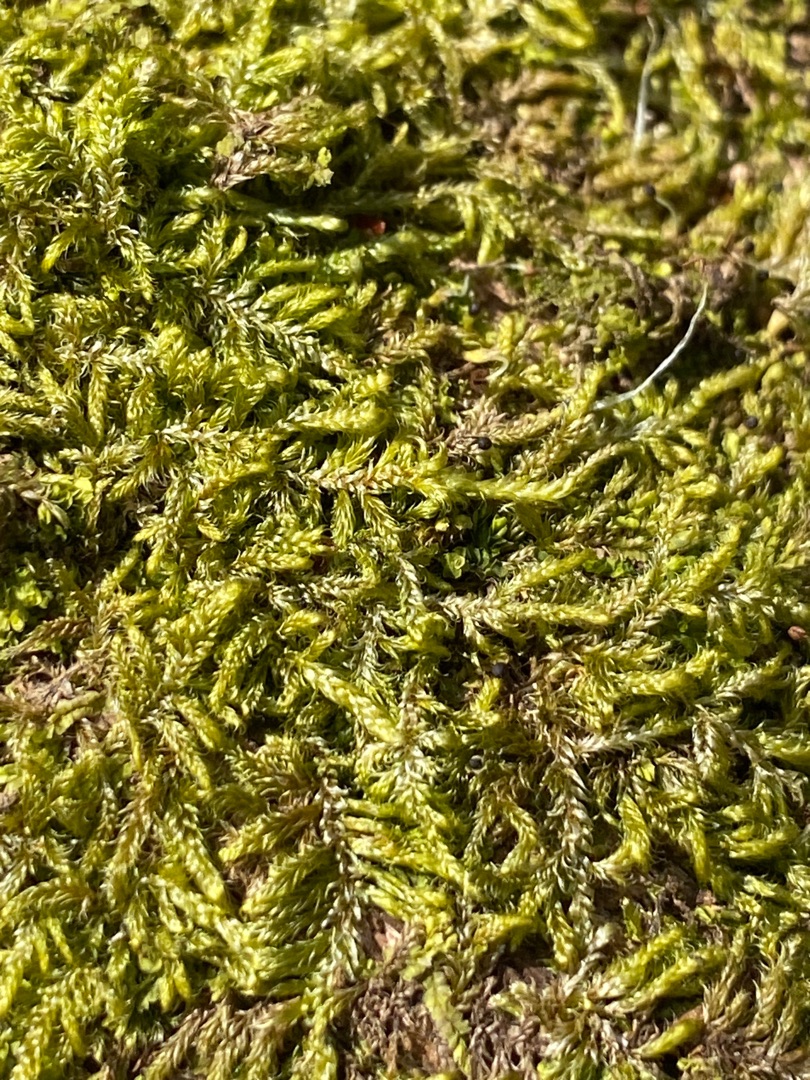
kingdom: Plantae
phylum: Bryophyta
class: Bryopsida
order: Hypnales
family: Hypnaceae
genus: Hypnum
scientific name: Hypnum cupressiforme
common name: Almindelig cypresmos
